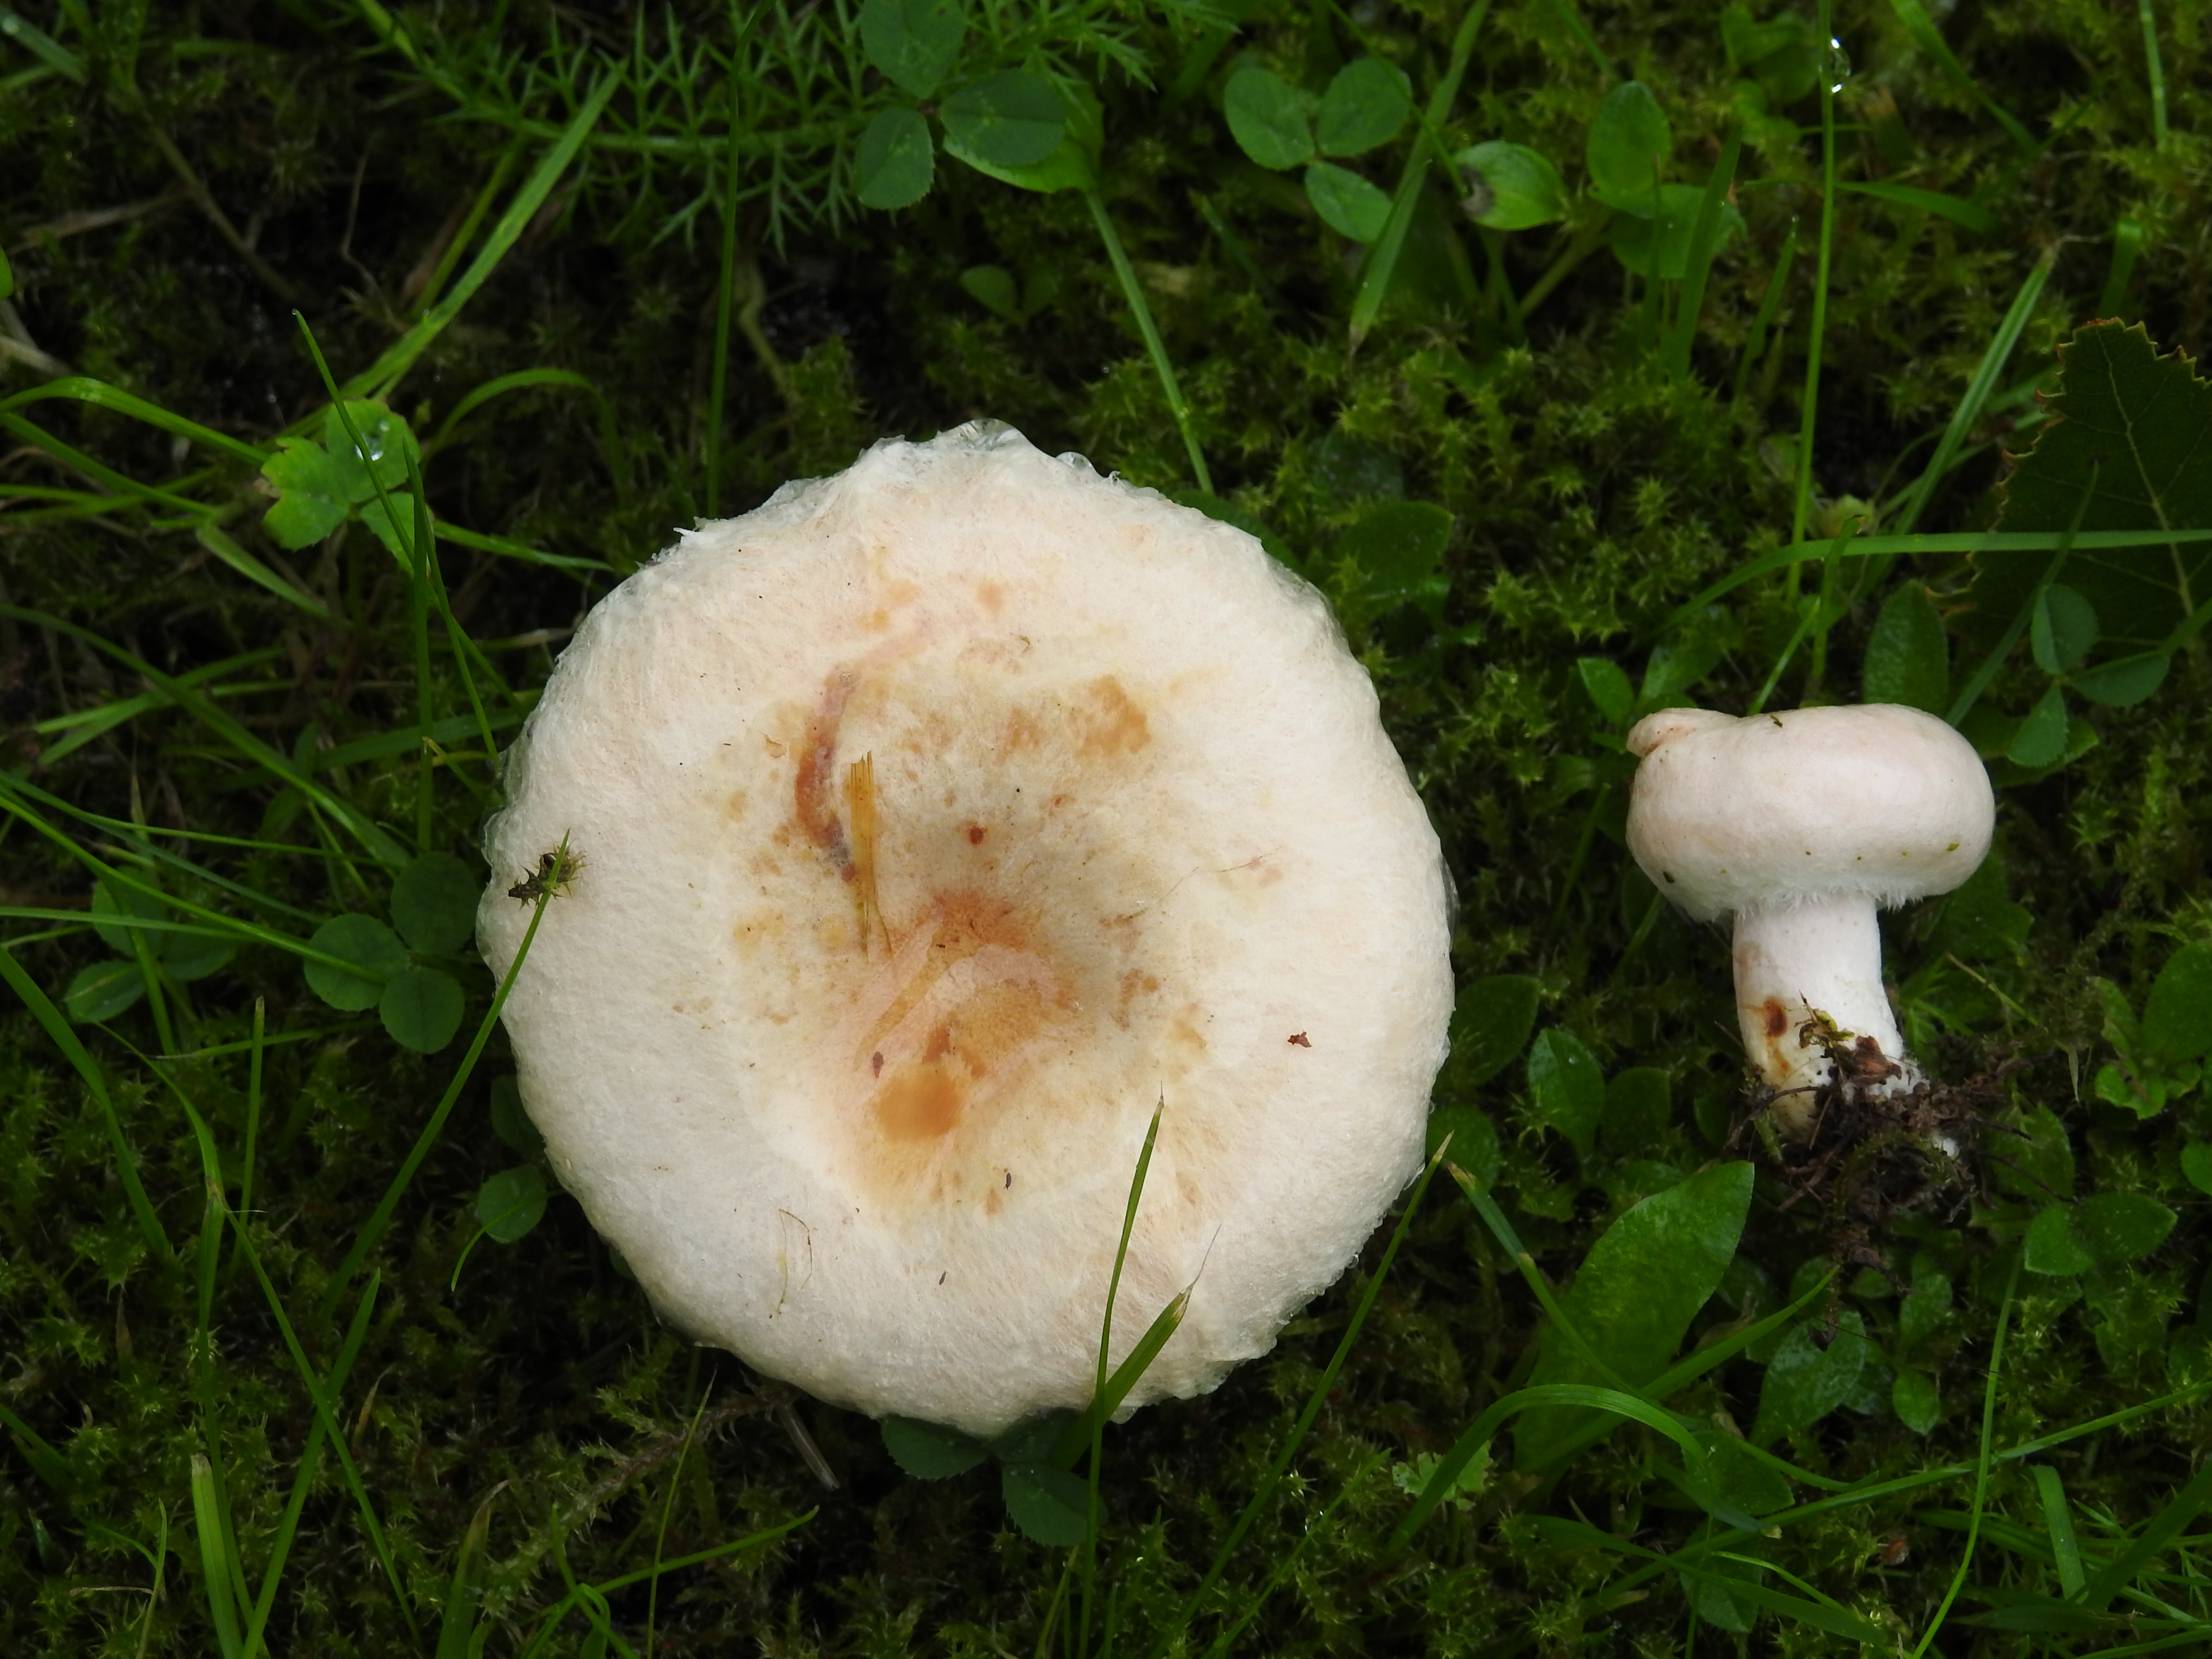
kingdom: Fungi
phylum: Basidiomycota
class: Agaricomycetes
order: Russulales
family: Russulaceae
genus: Lactarius
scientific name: Lactarius pubescens
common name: Bearded milkcap
